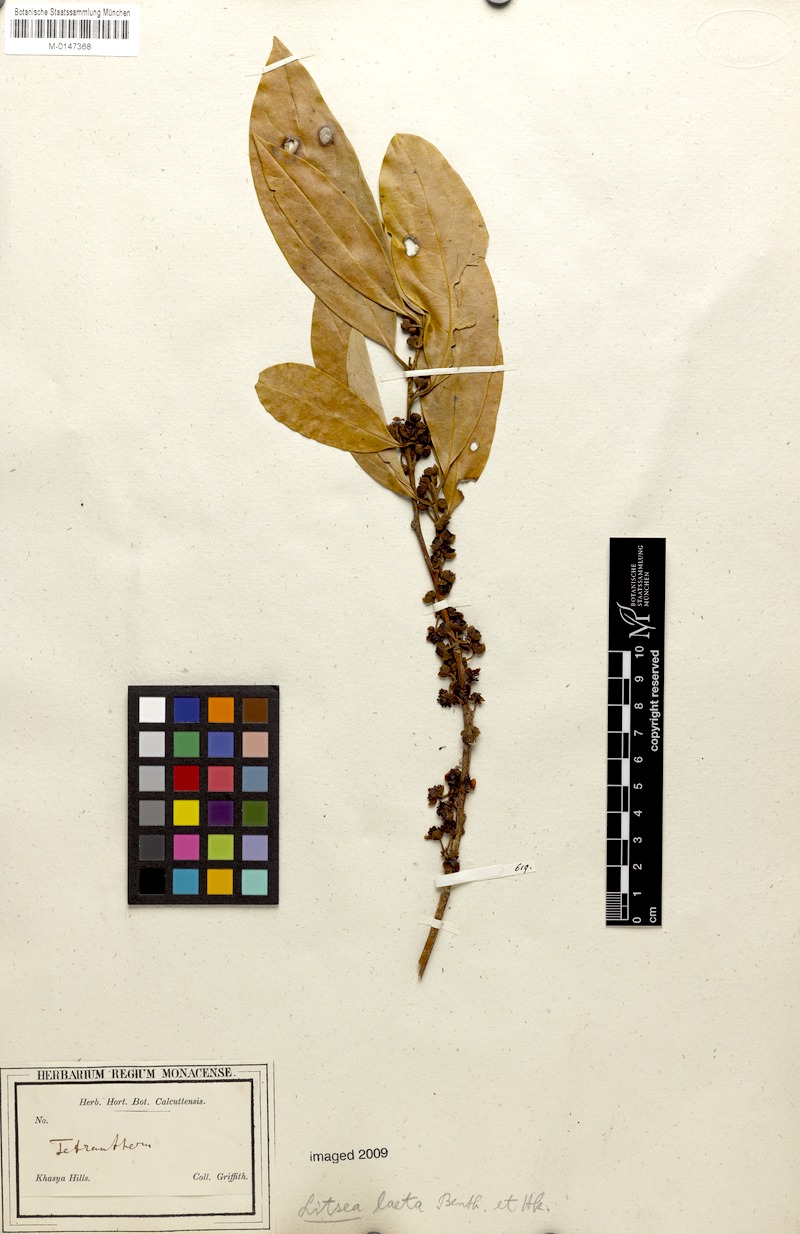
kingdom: Plantae
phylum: Tracheophyta
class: Magnoliopsida
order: Laurales
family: Lauraceae
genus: Litsea
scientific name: Litsea laeta
